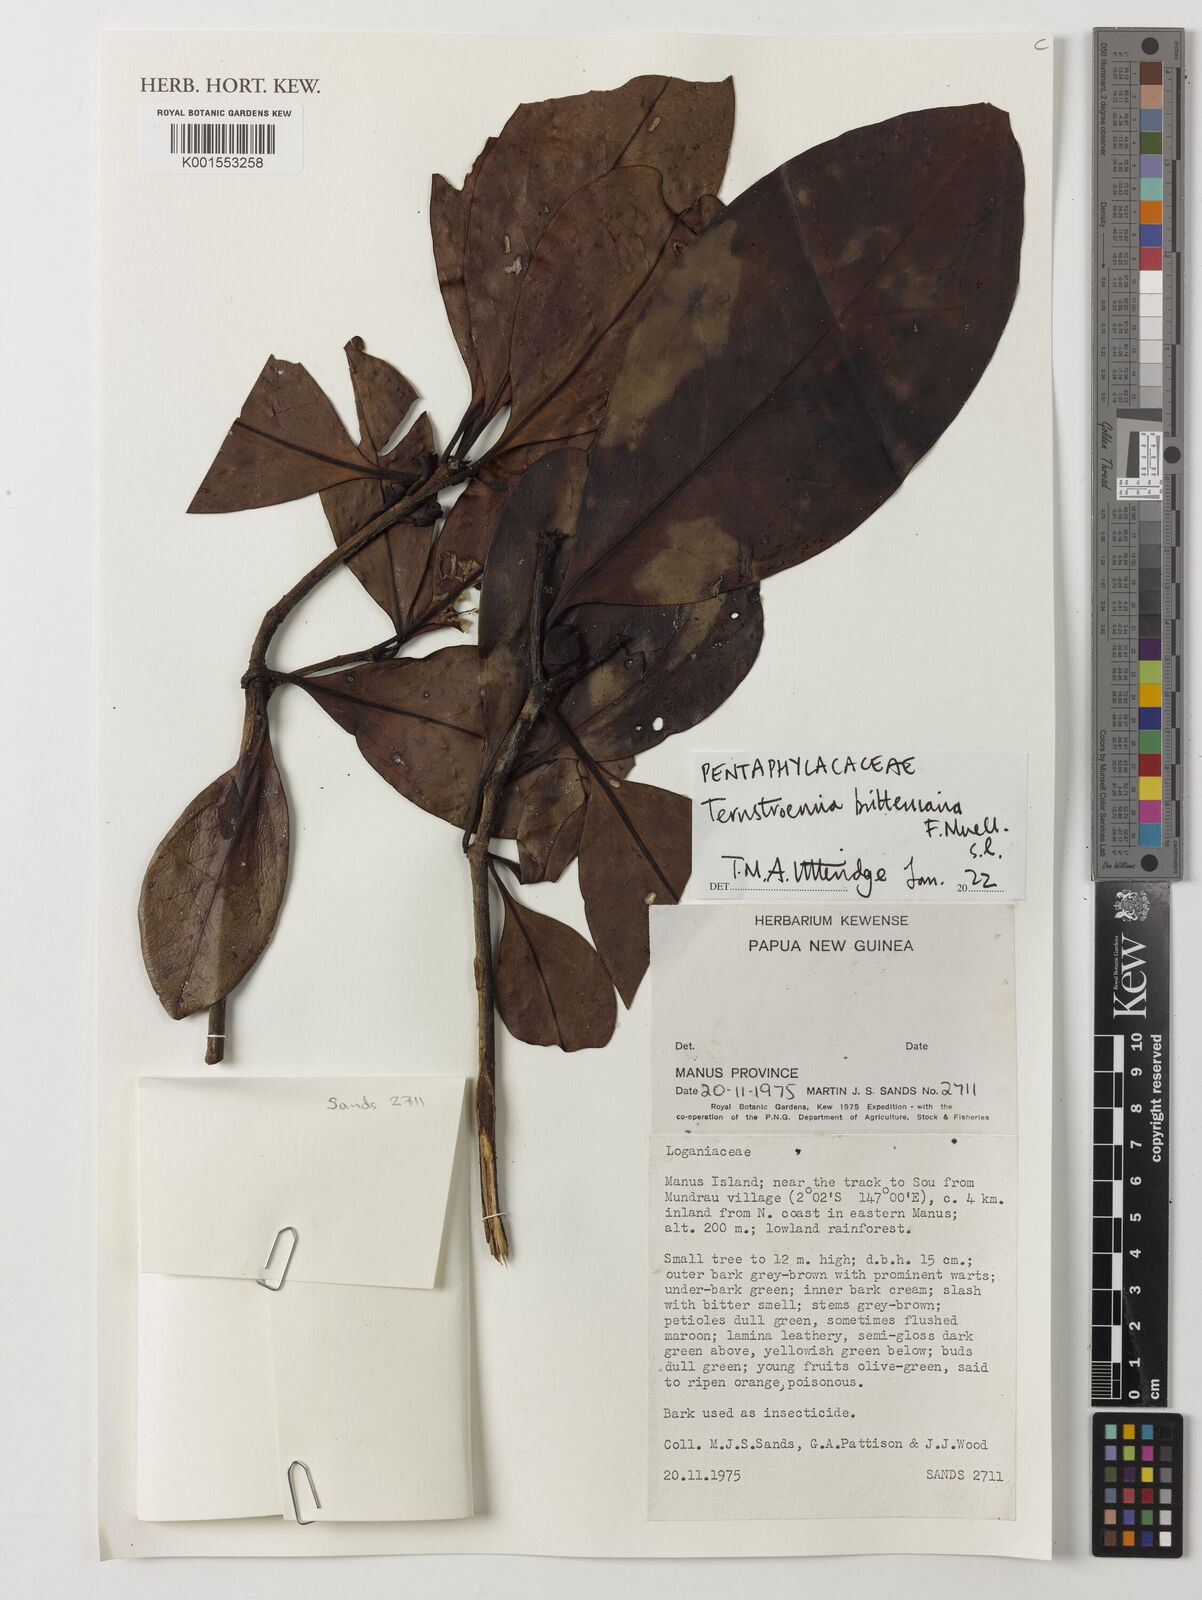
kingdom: Plantae
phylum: Tracheophyta
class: Magnoliopsida
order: Ericales
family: Pentaphylacaceae
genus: Ternstroemia
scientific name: Ternstroemia britteniana
